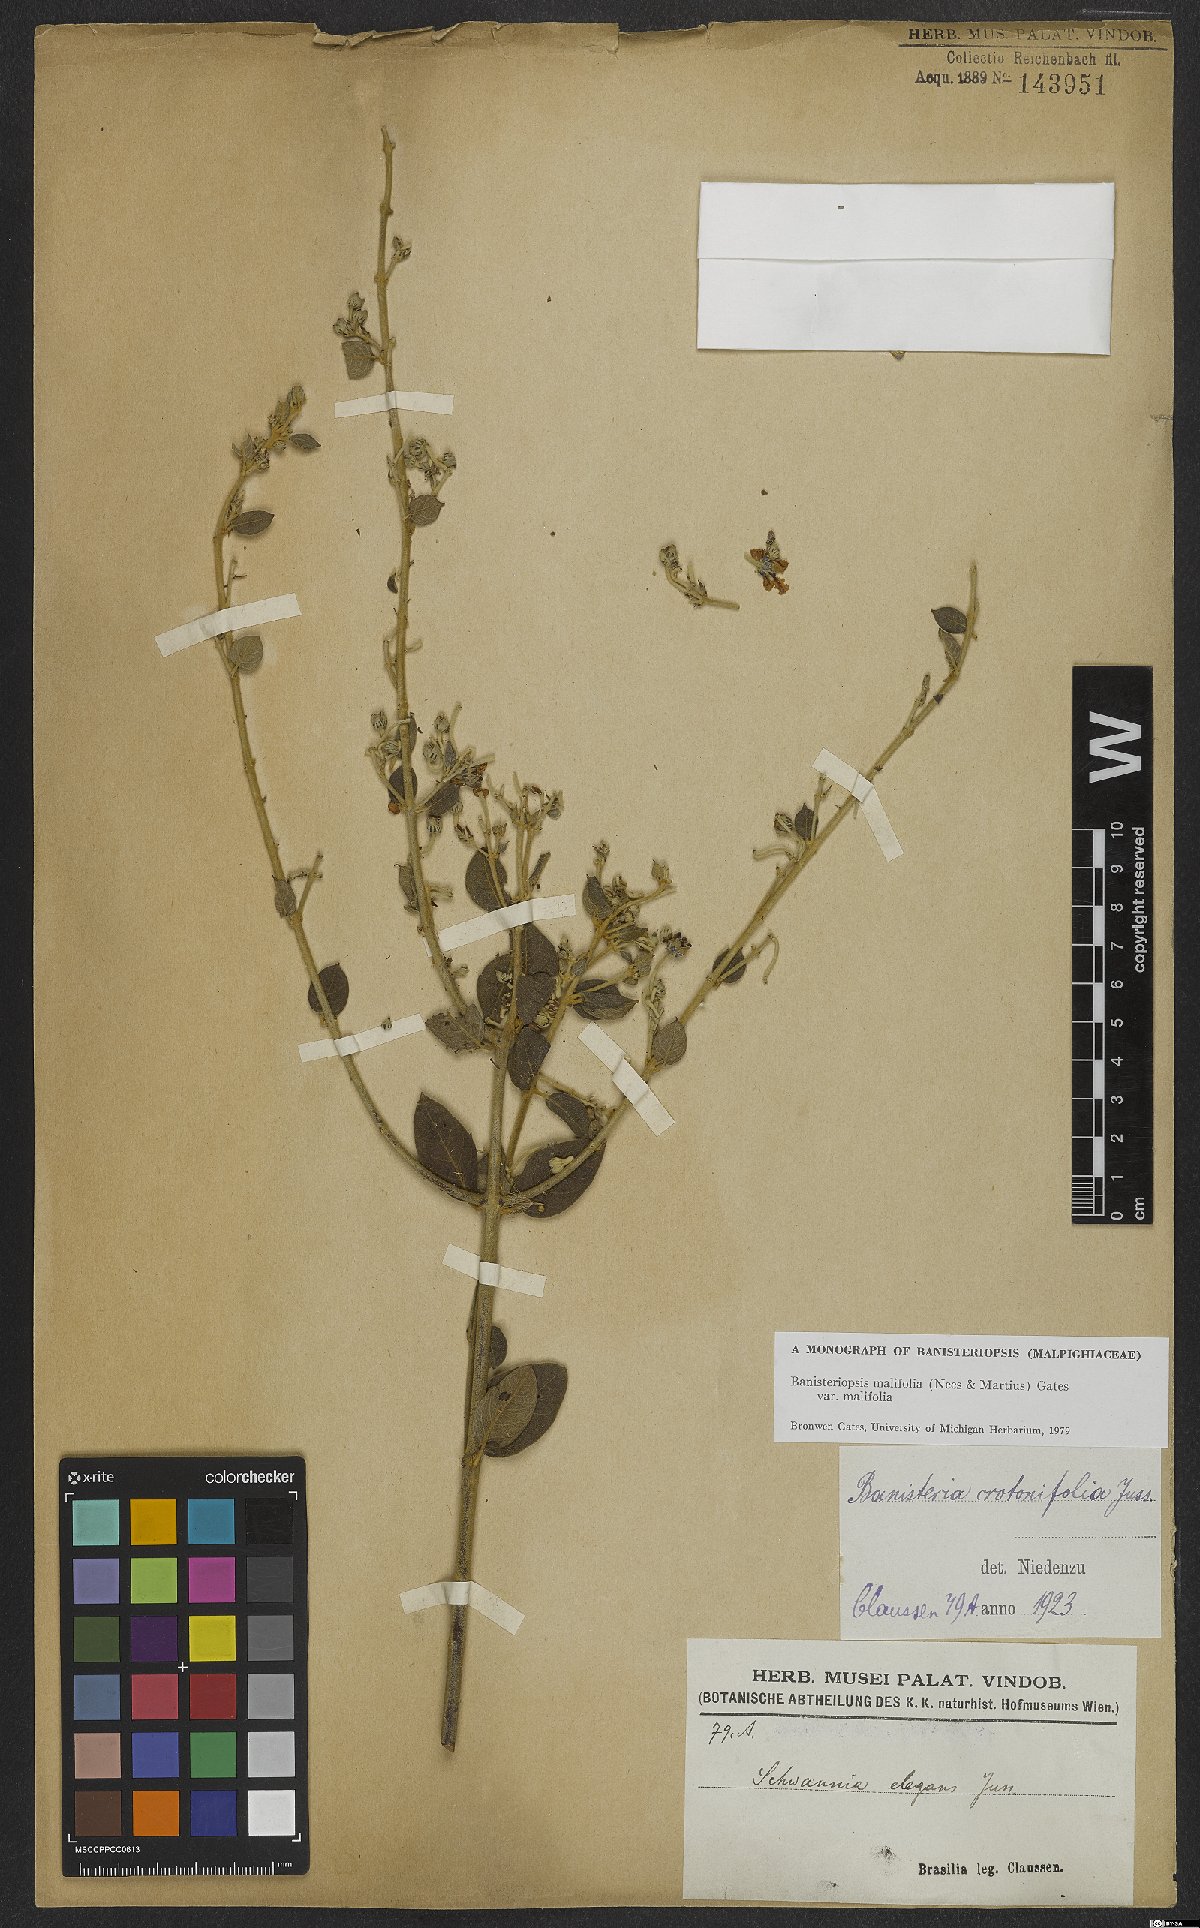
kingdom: Plantae
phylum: Tracheophyta
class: Magnoliopsida
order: Malpighiales
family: Malpighiaceae
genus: Banisteriopsis
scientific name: Banisteriopsis malifolia
